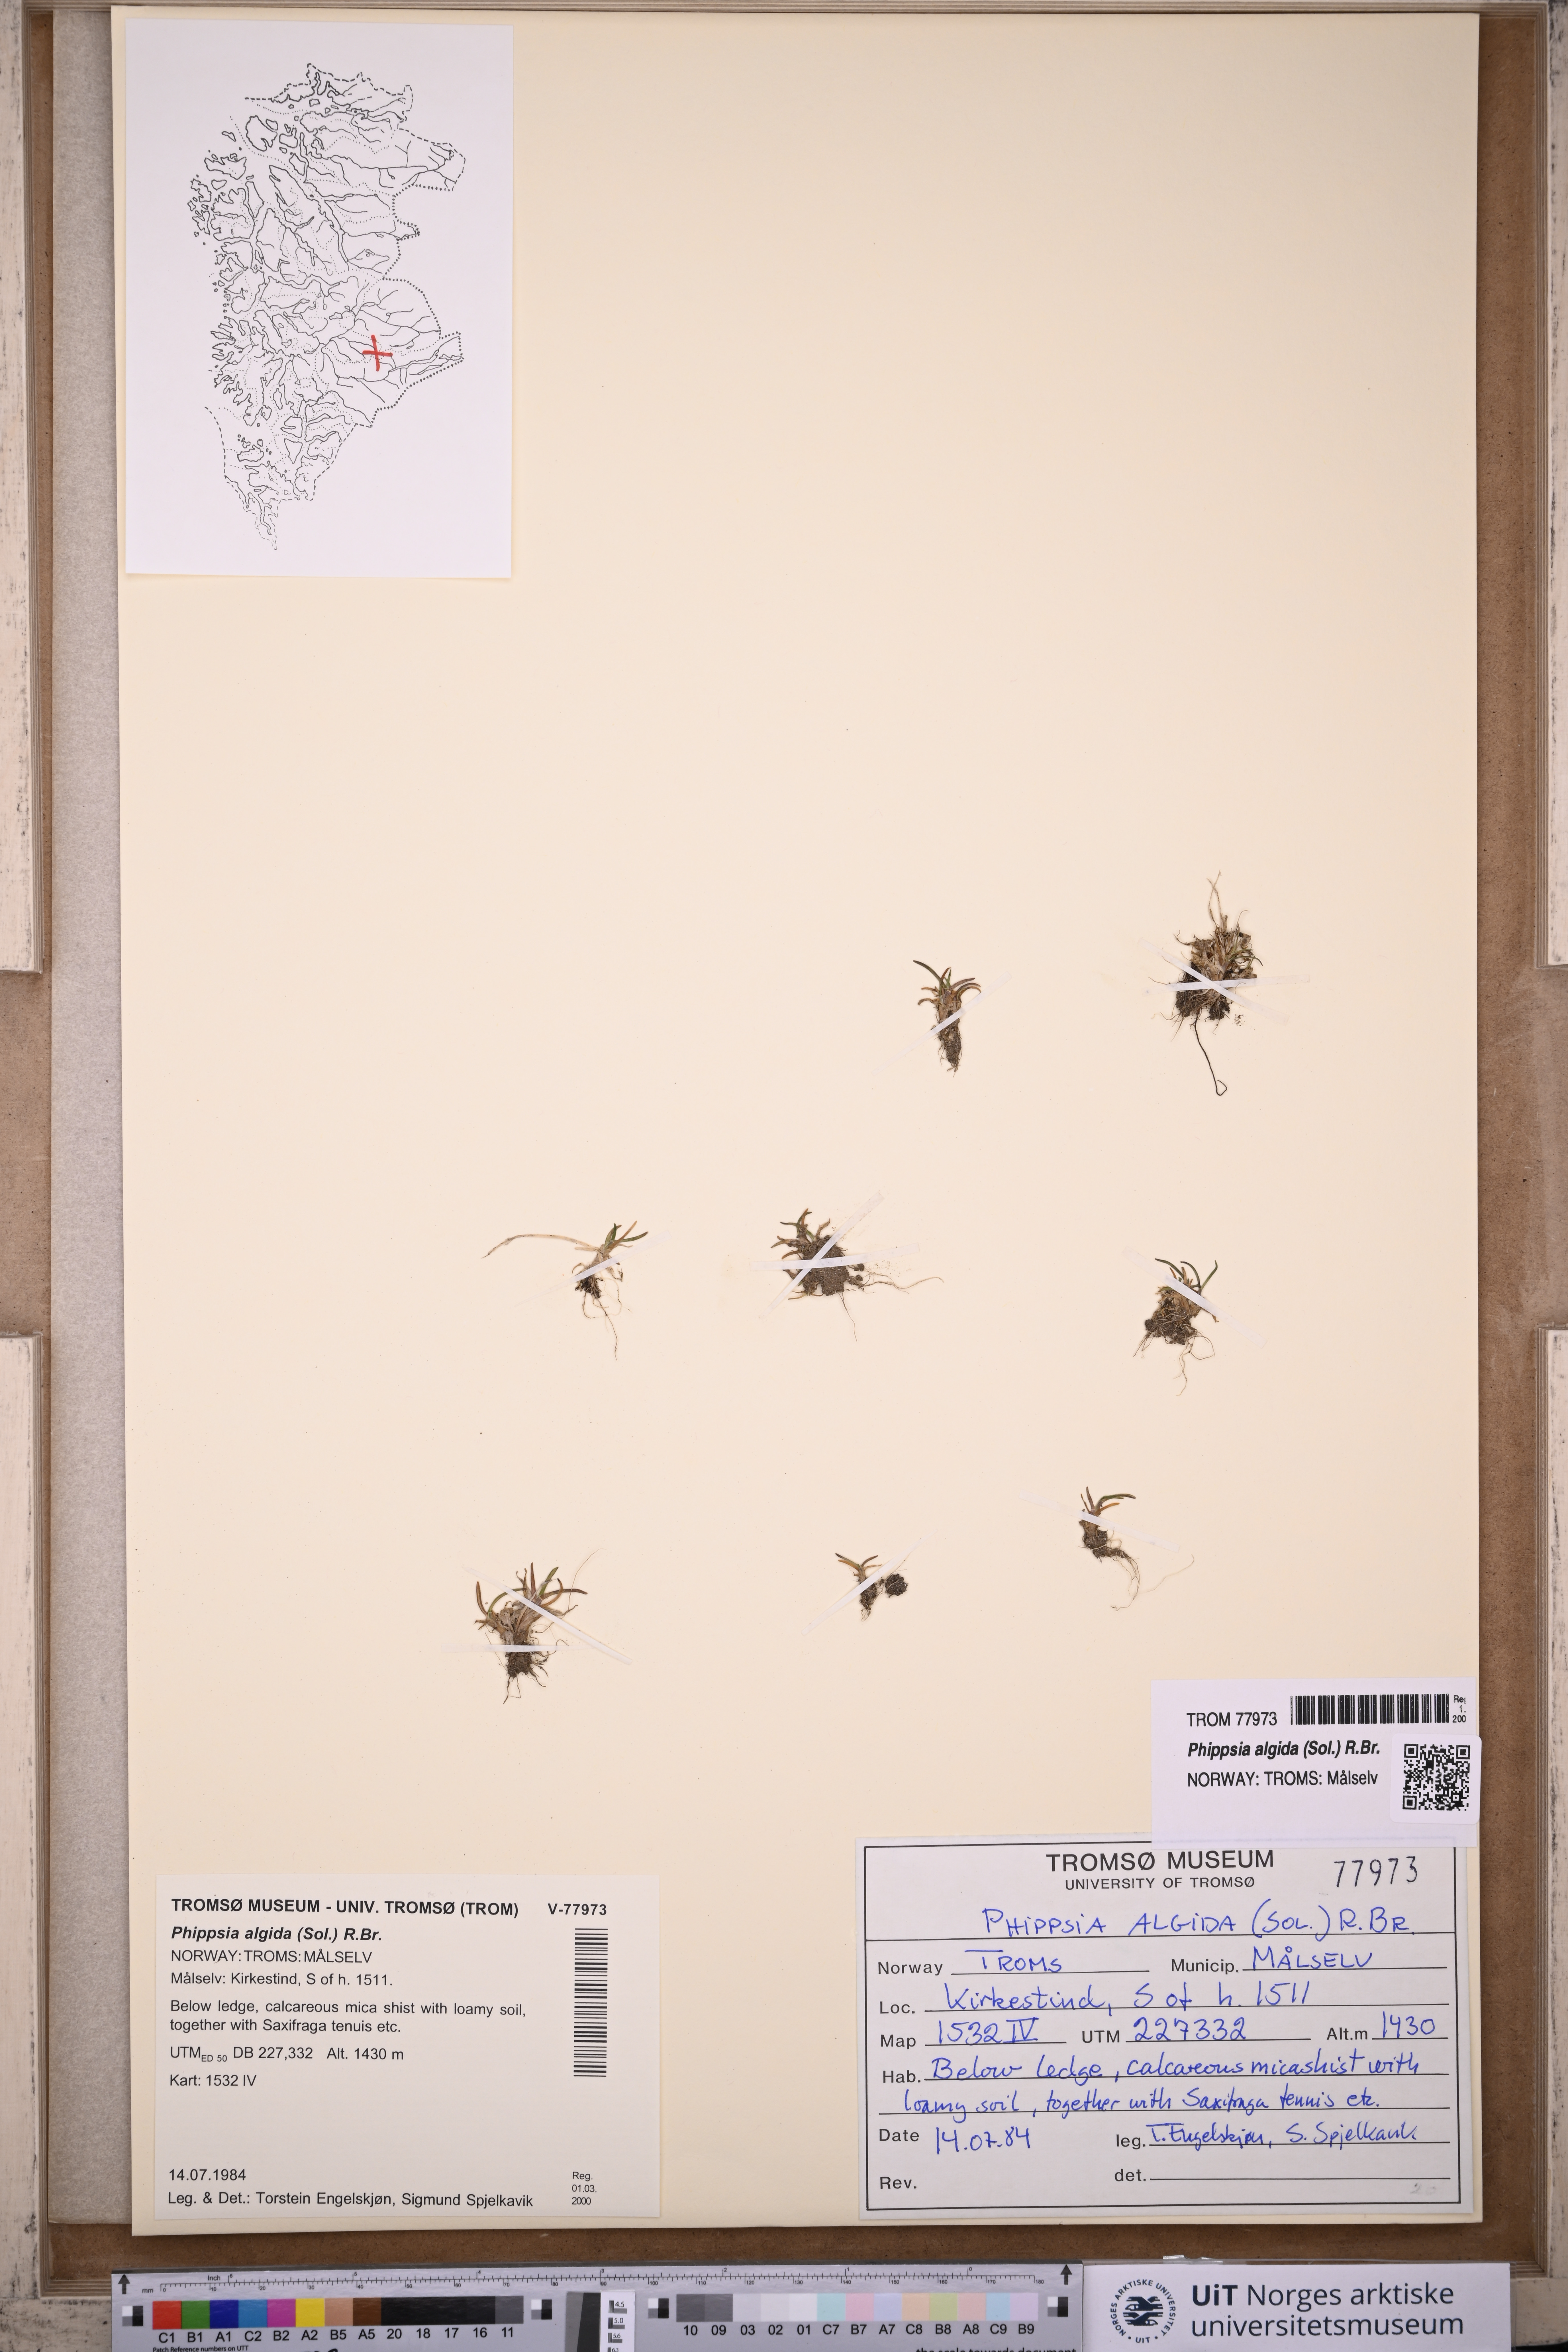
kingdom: Plantae
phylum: Tracheophyta
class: Liliopsida
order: Poales
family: Poaceae
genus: Phippsia
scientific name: Phippsia algida
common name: Ice grass
